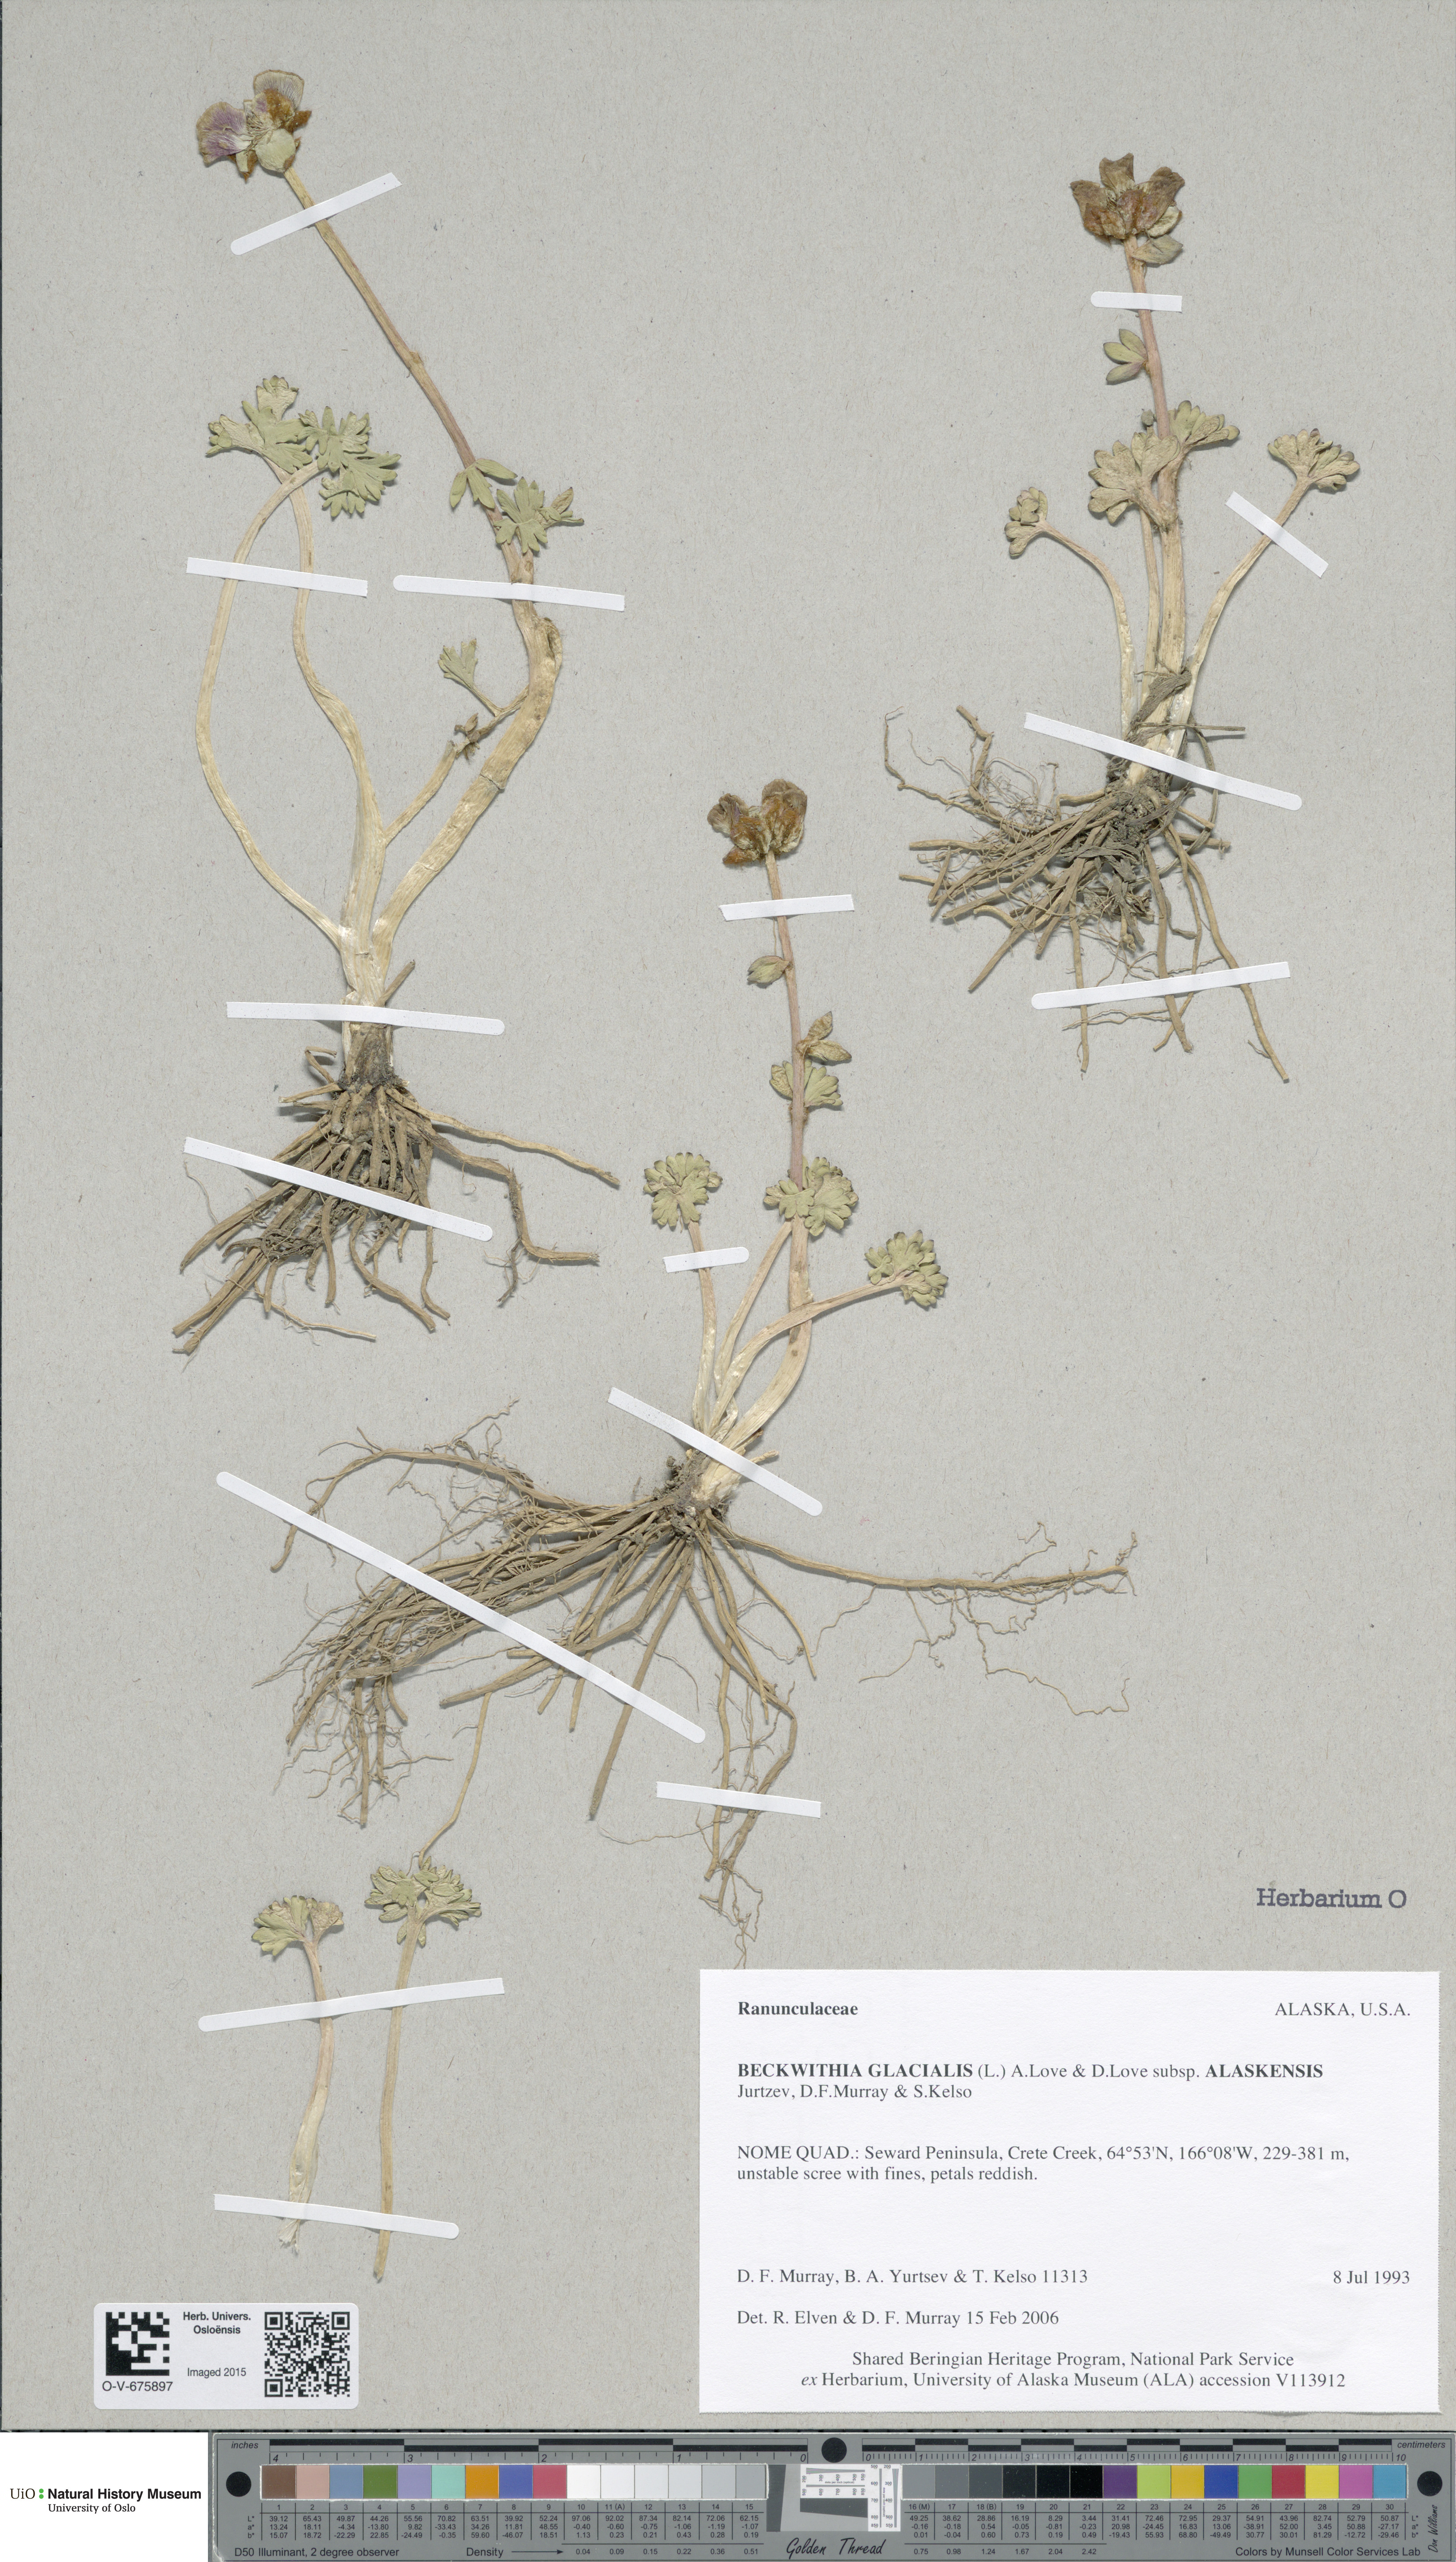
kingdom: Plantae
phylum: Tracheophyta
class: Magnoliopsida
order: Ranunculales
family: Ranunculaceae
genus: Ranunculus
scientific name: Ranunculus glacialis
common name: Glacier buttercup
